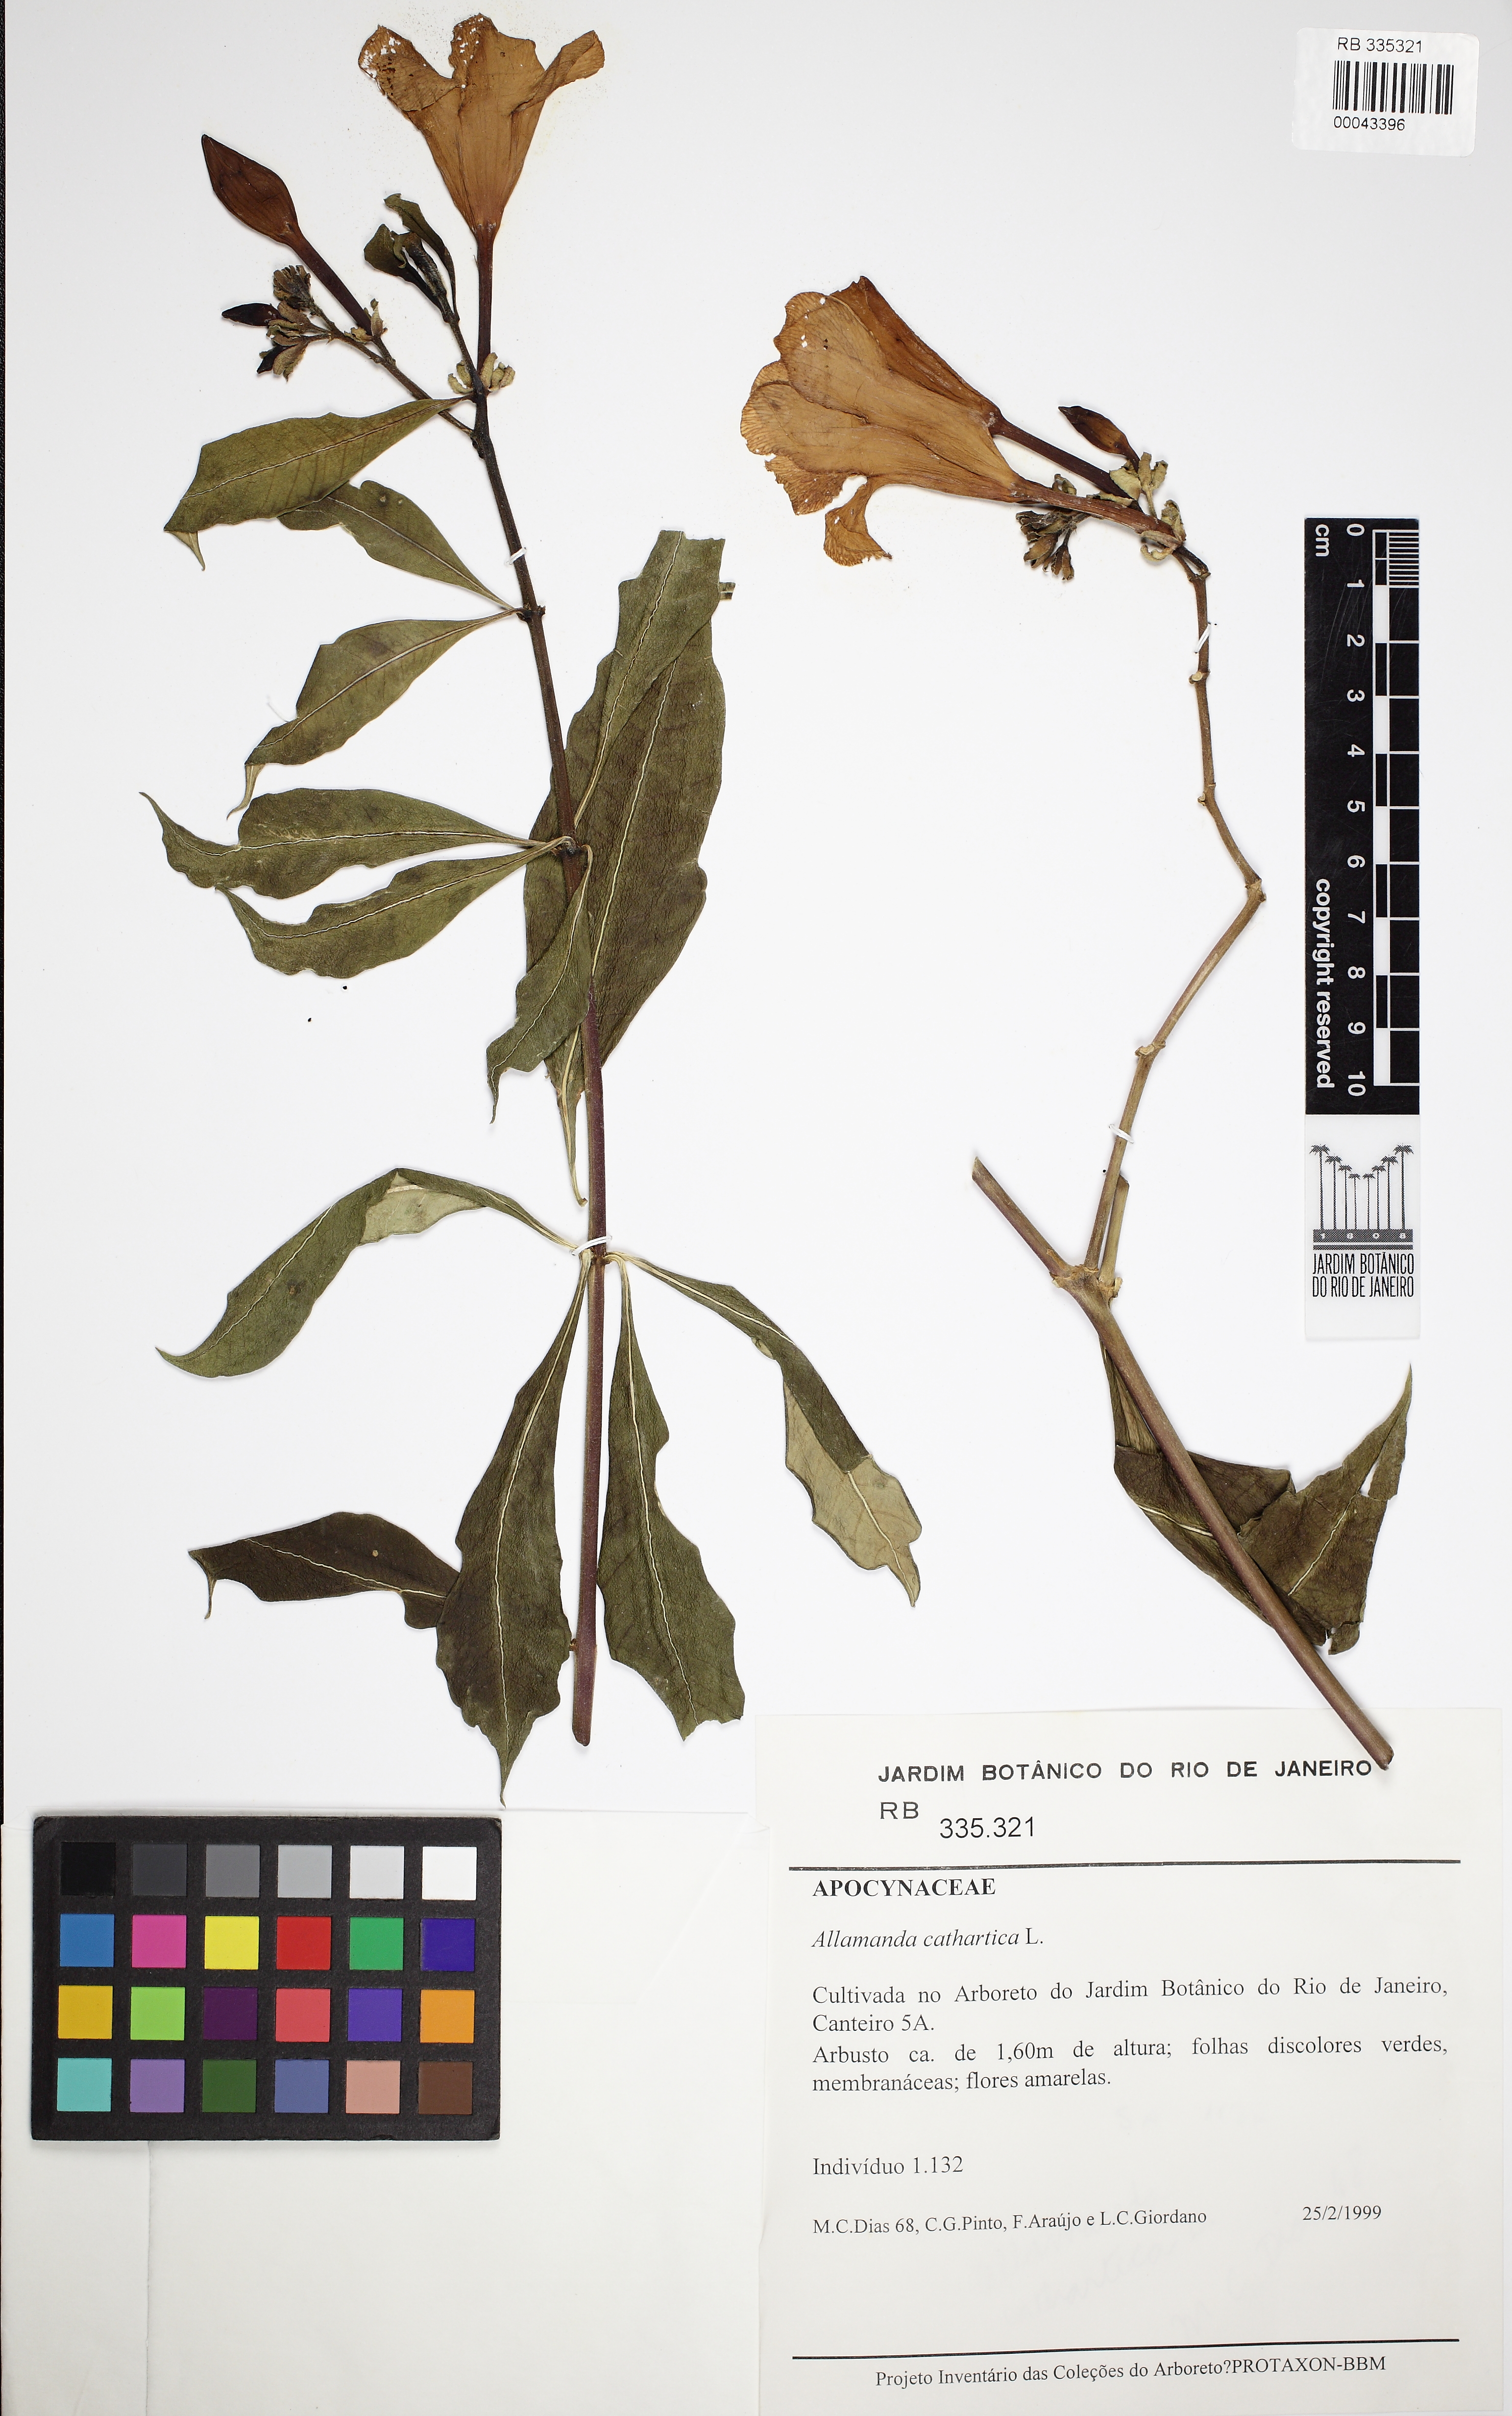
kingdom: Plantae
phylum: Tracheophyta
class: Magnoliopsida
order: Gentianales
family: Apocynaceae
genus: Allamanda
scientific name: Allamanda cathartica
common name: Golden trumpet
